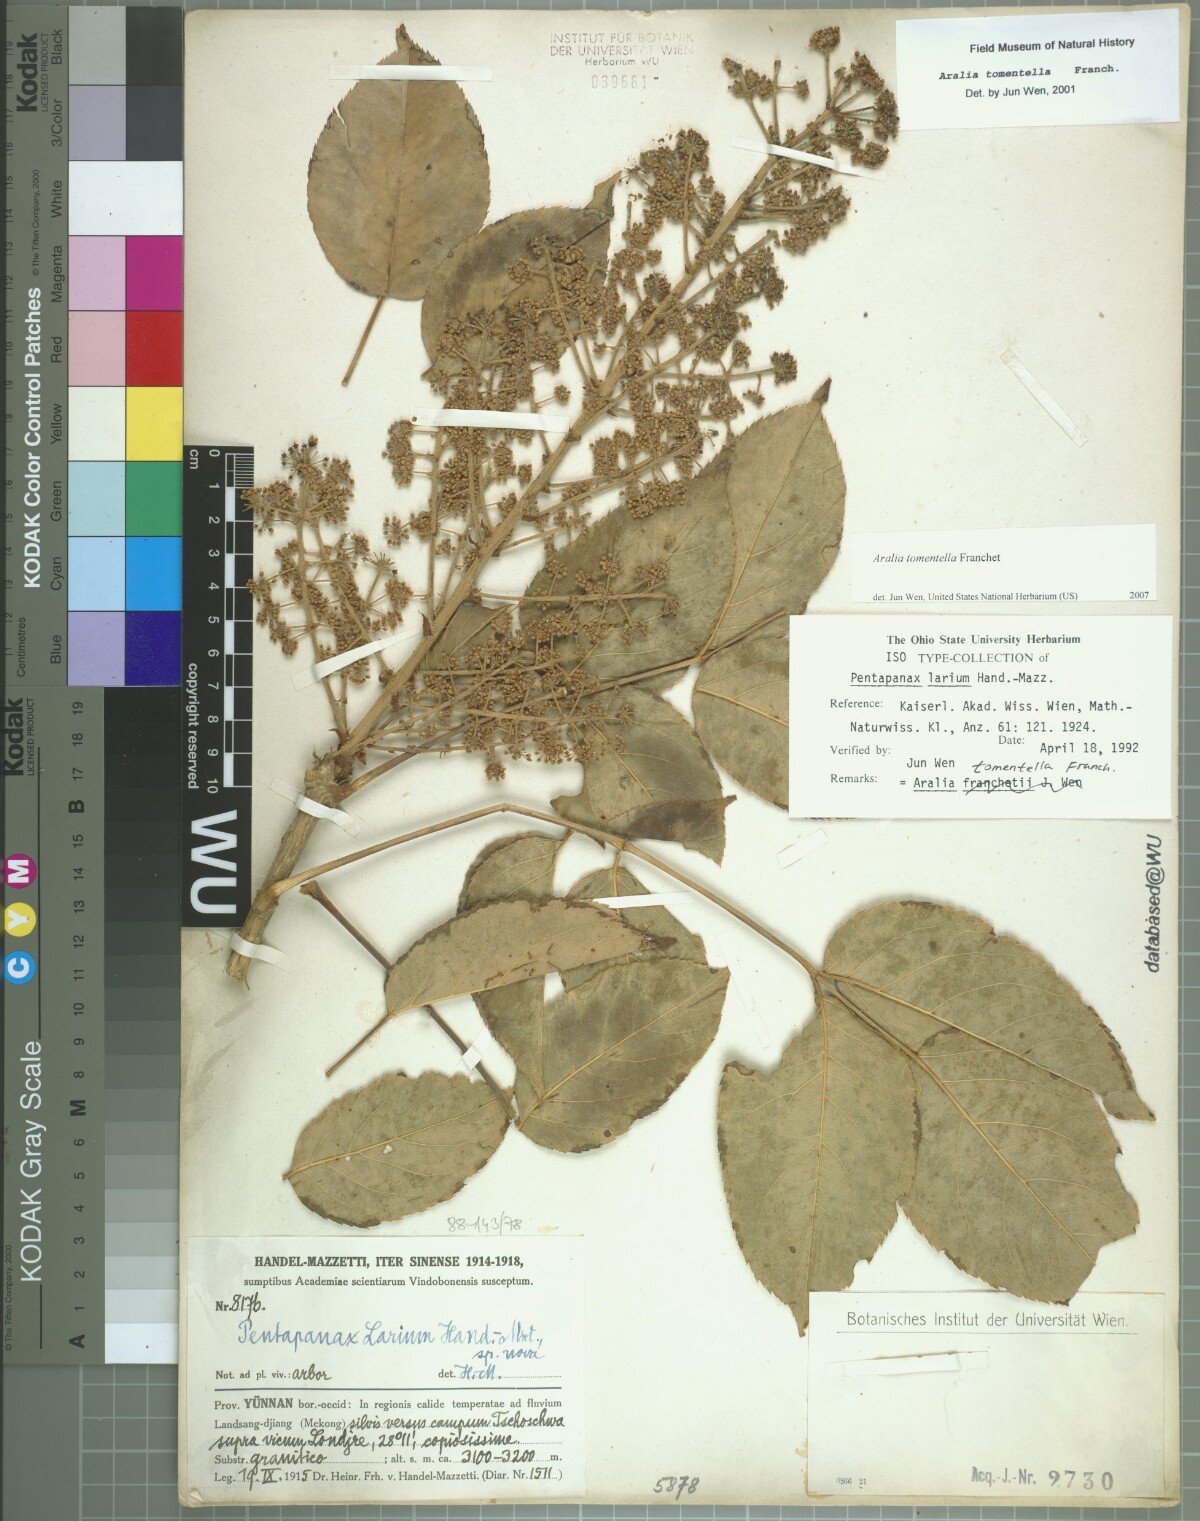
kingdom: Plantae
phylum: Tracheophyta
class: Magnoliopsida
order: Apiales
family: Araliaceae
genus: Aralia
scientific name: Aralia tomentella
